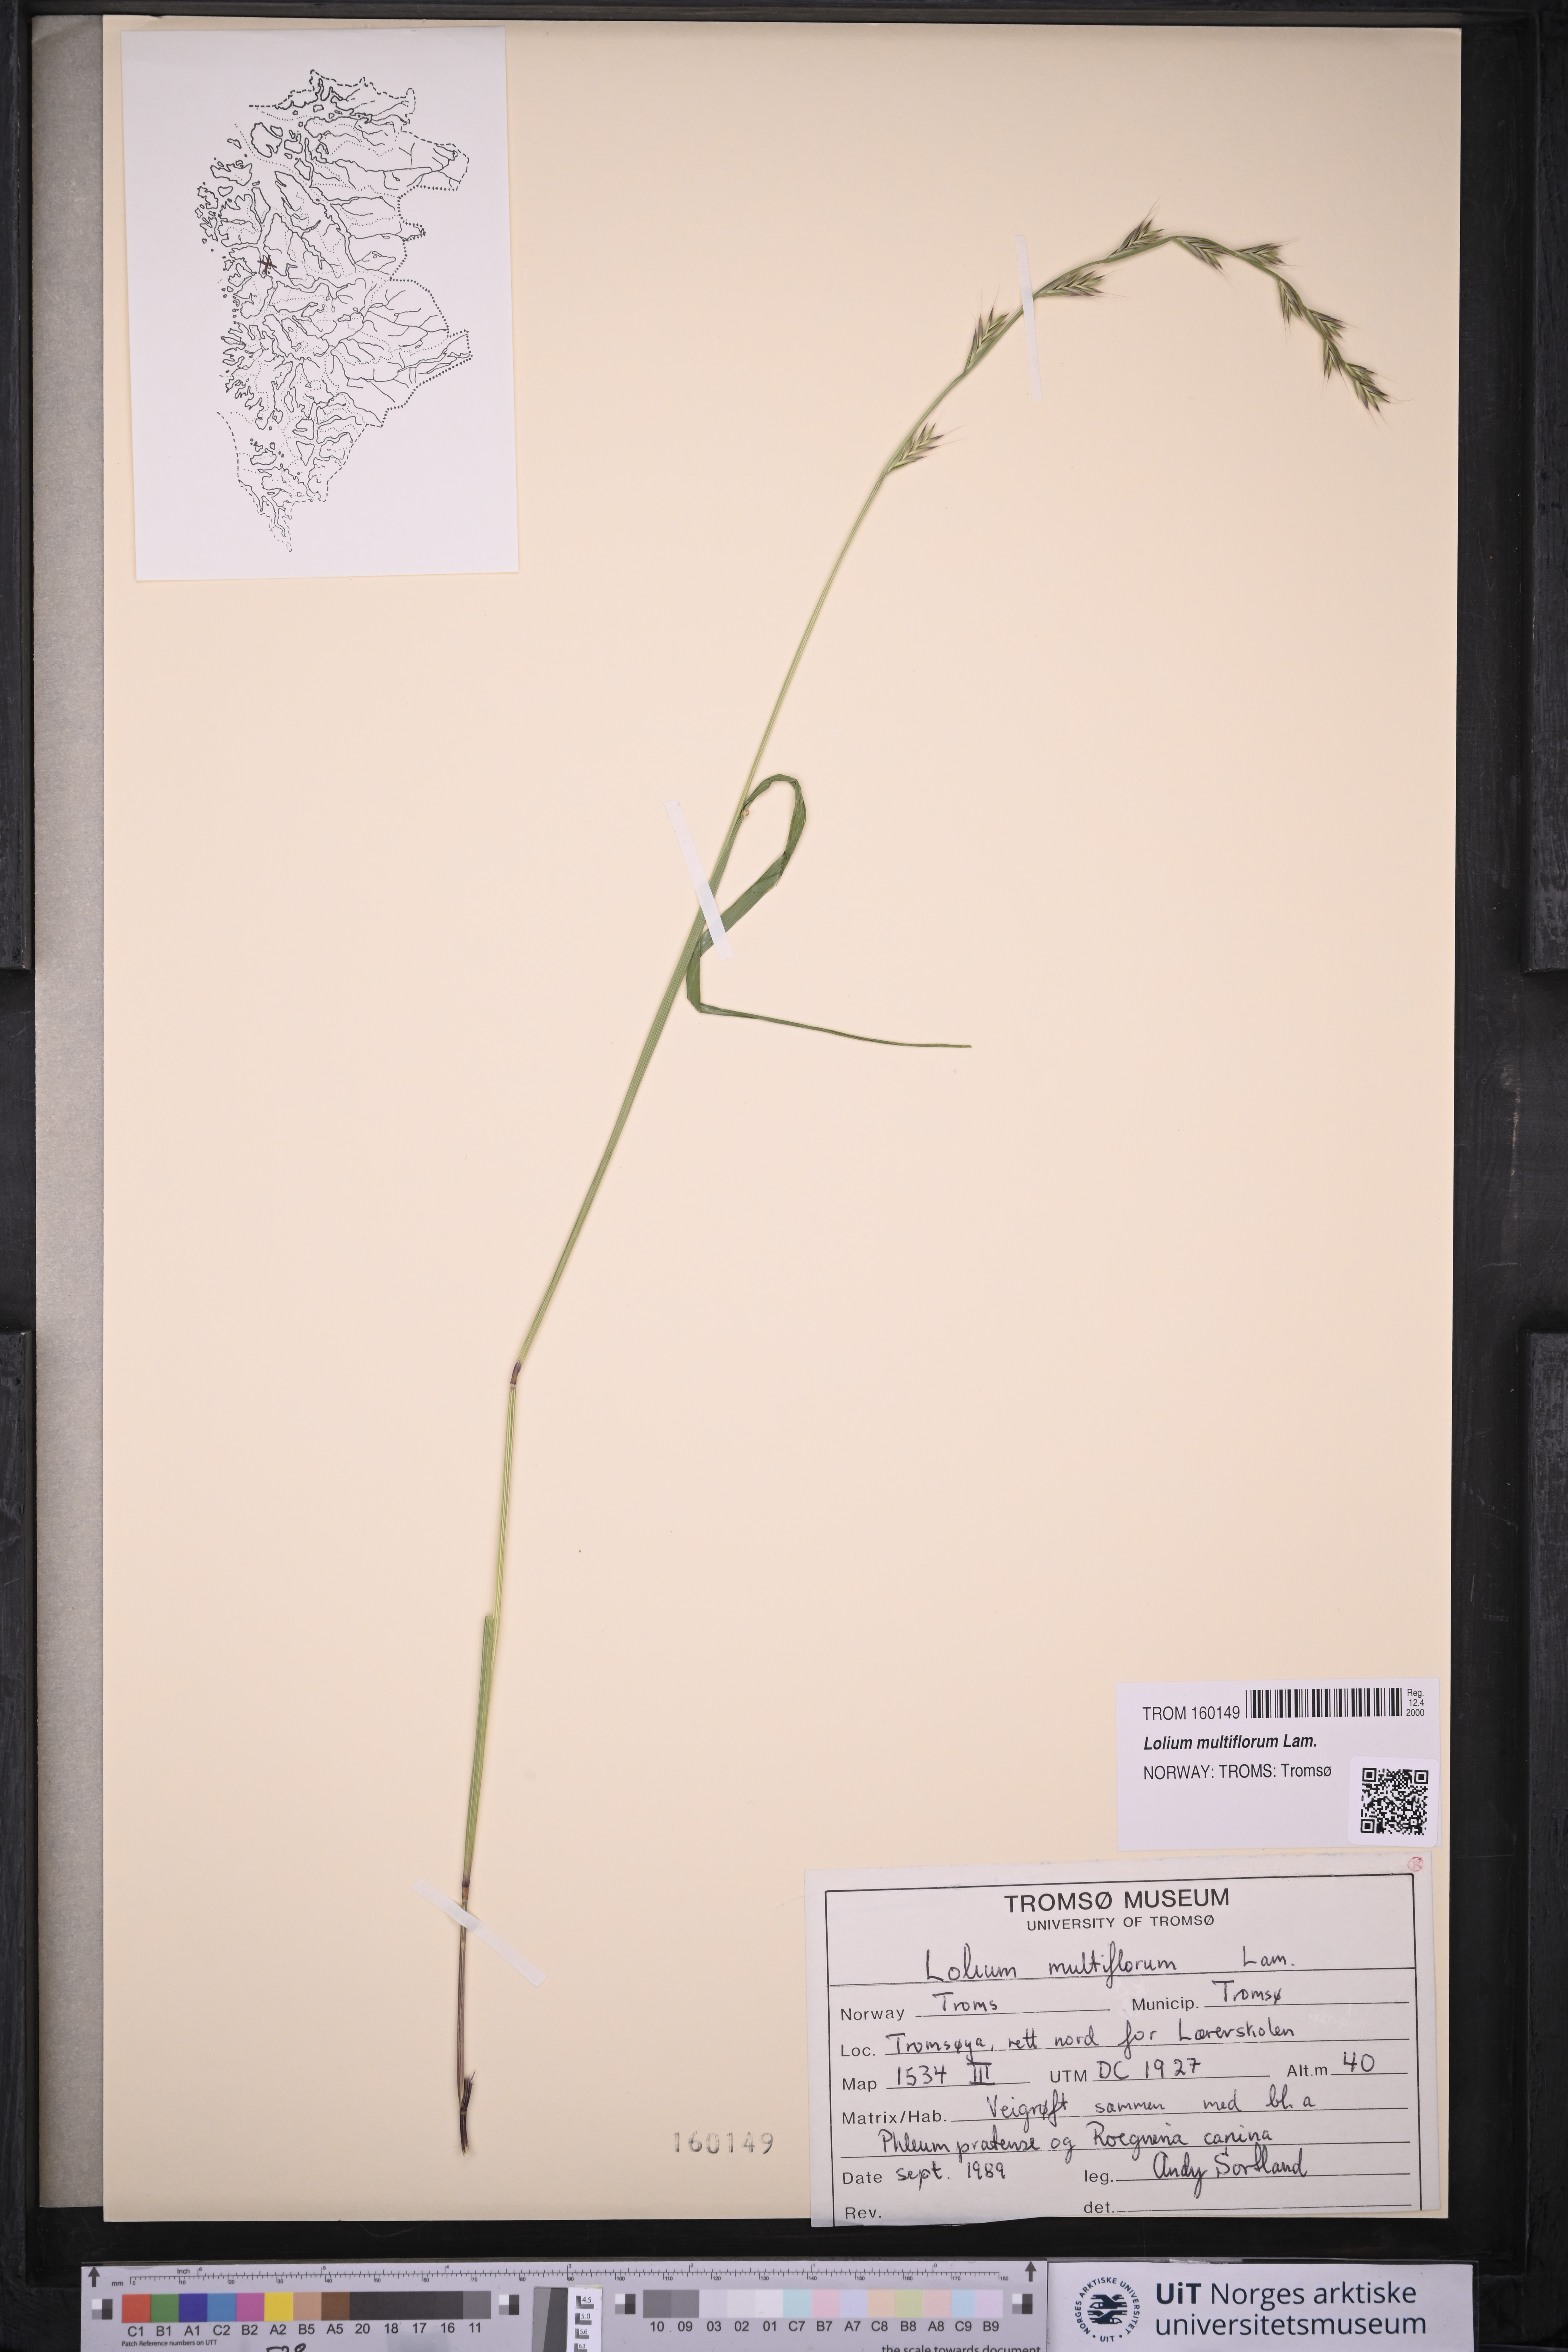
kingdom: Plantae
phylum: Tracheophyta
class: Liliopsida
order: Poales
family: Poaceae
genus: Lolium
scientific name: Lolium multiflorum
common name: Annual ryegrass
